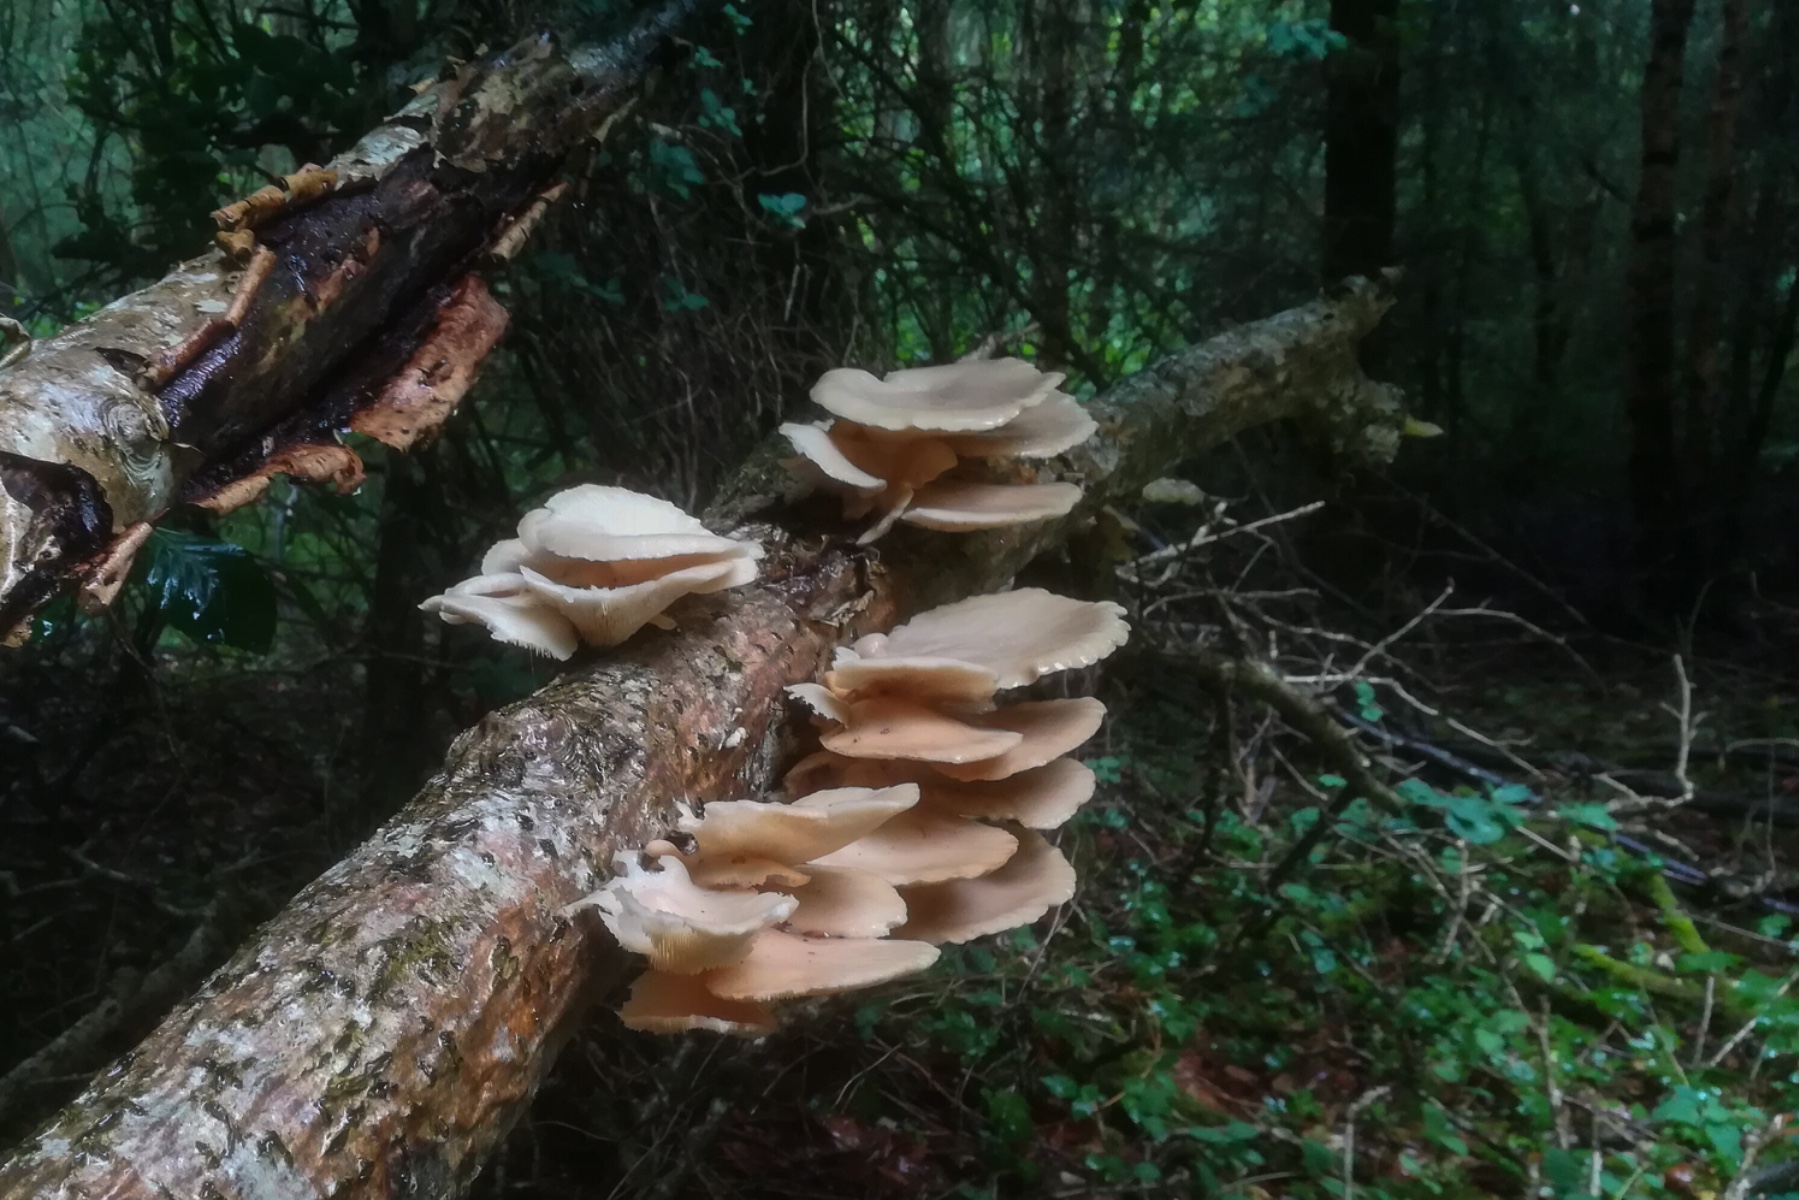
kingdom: Fungi
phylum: Basidiomycota
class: Agaricomycetes
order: Agaricales
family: Pleurotaceae
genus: Pleurotus
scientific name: Pleurotus pulmonarius
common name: sommer-østershat
